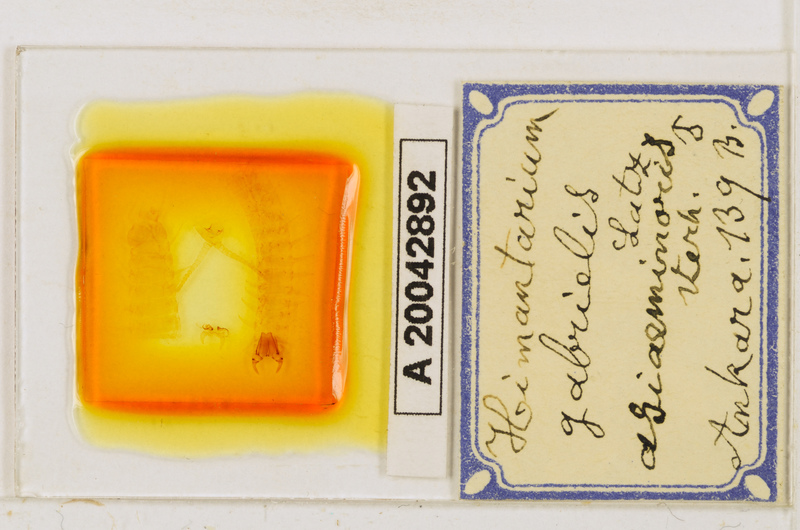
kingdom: Animalia
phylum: Arthropoda
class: Chilopoda
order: Geophilomorpha
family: Himantariidae
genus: Himantarium
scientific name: Himantarium gabrielis
